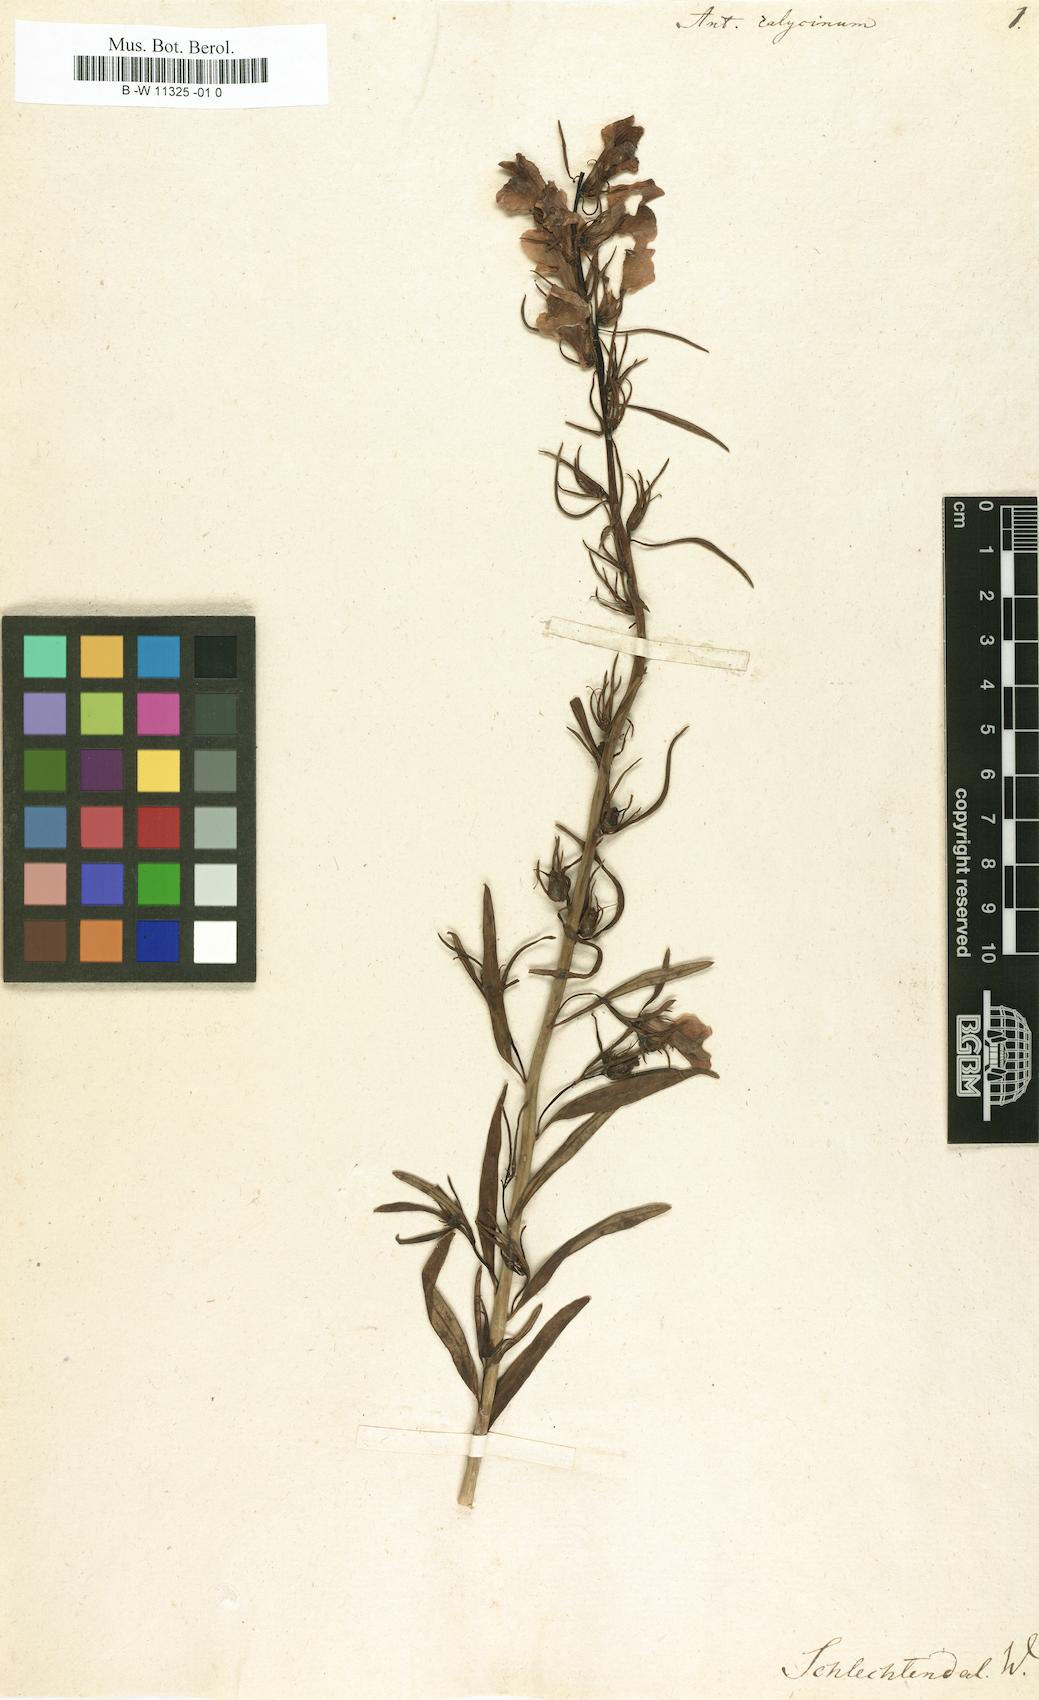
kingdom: Plantae
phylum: Tracheophyta
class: Magnoliopsida
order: Lamiales
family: Plantaginaceae
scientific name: Plantaginaceae
